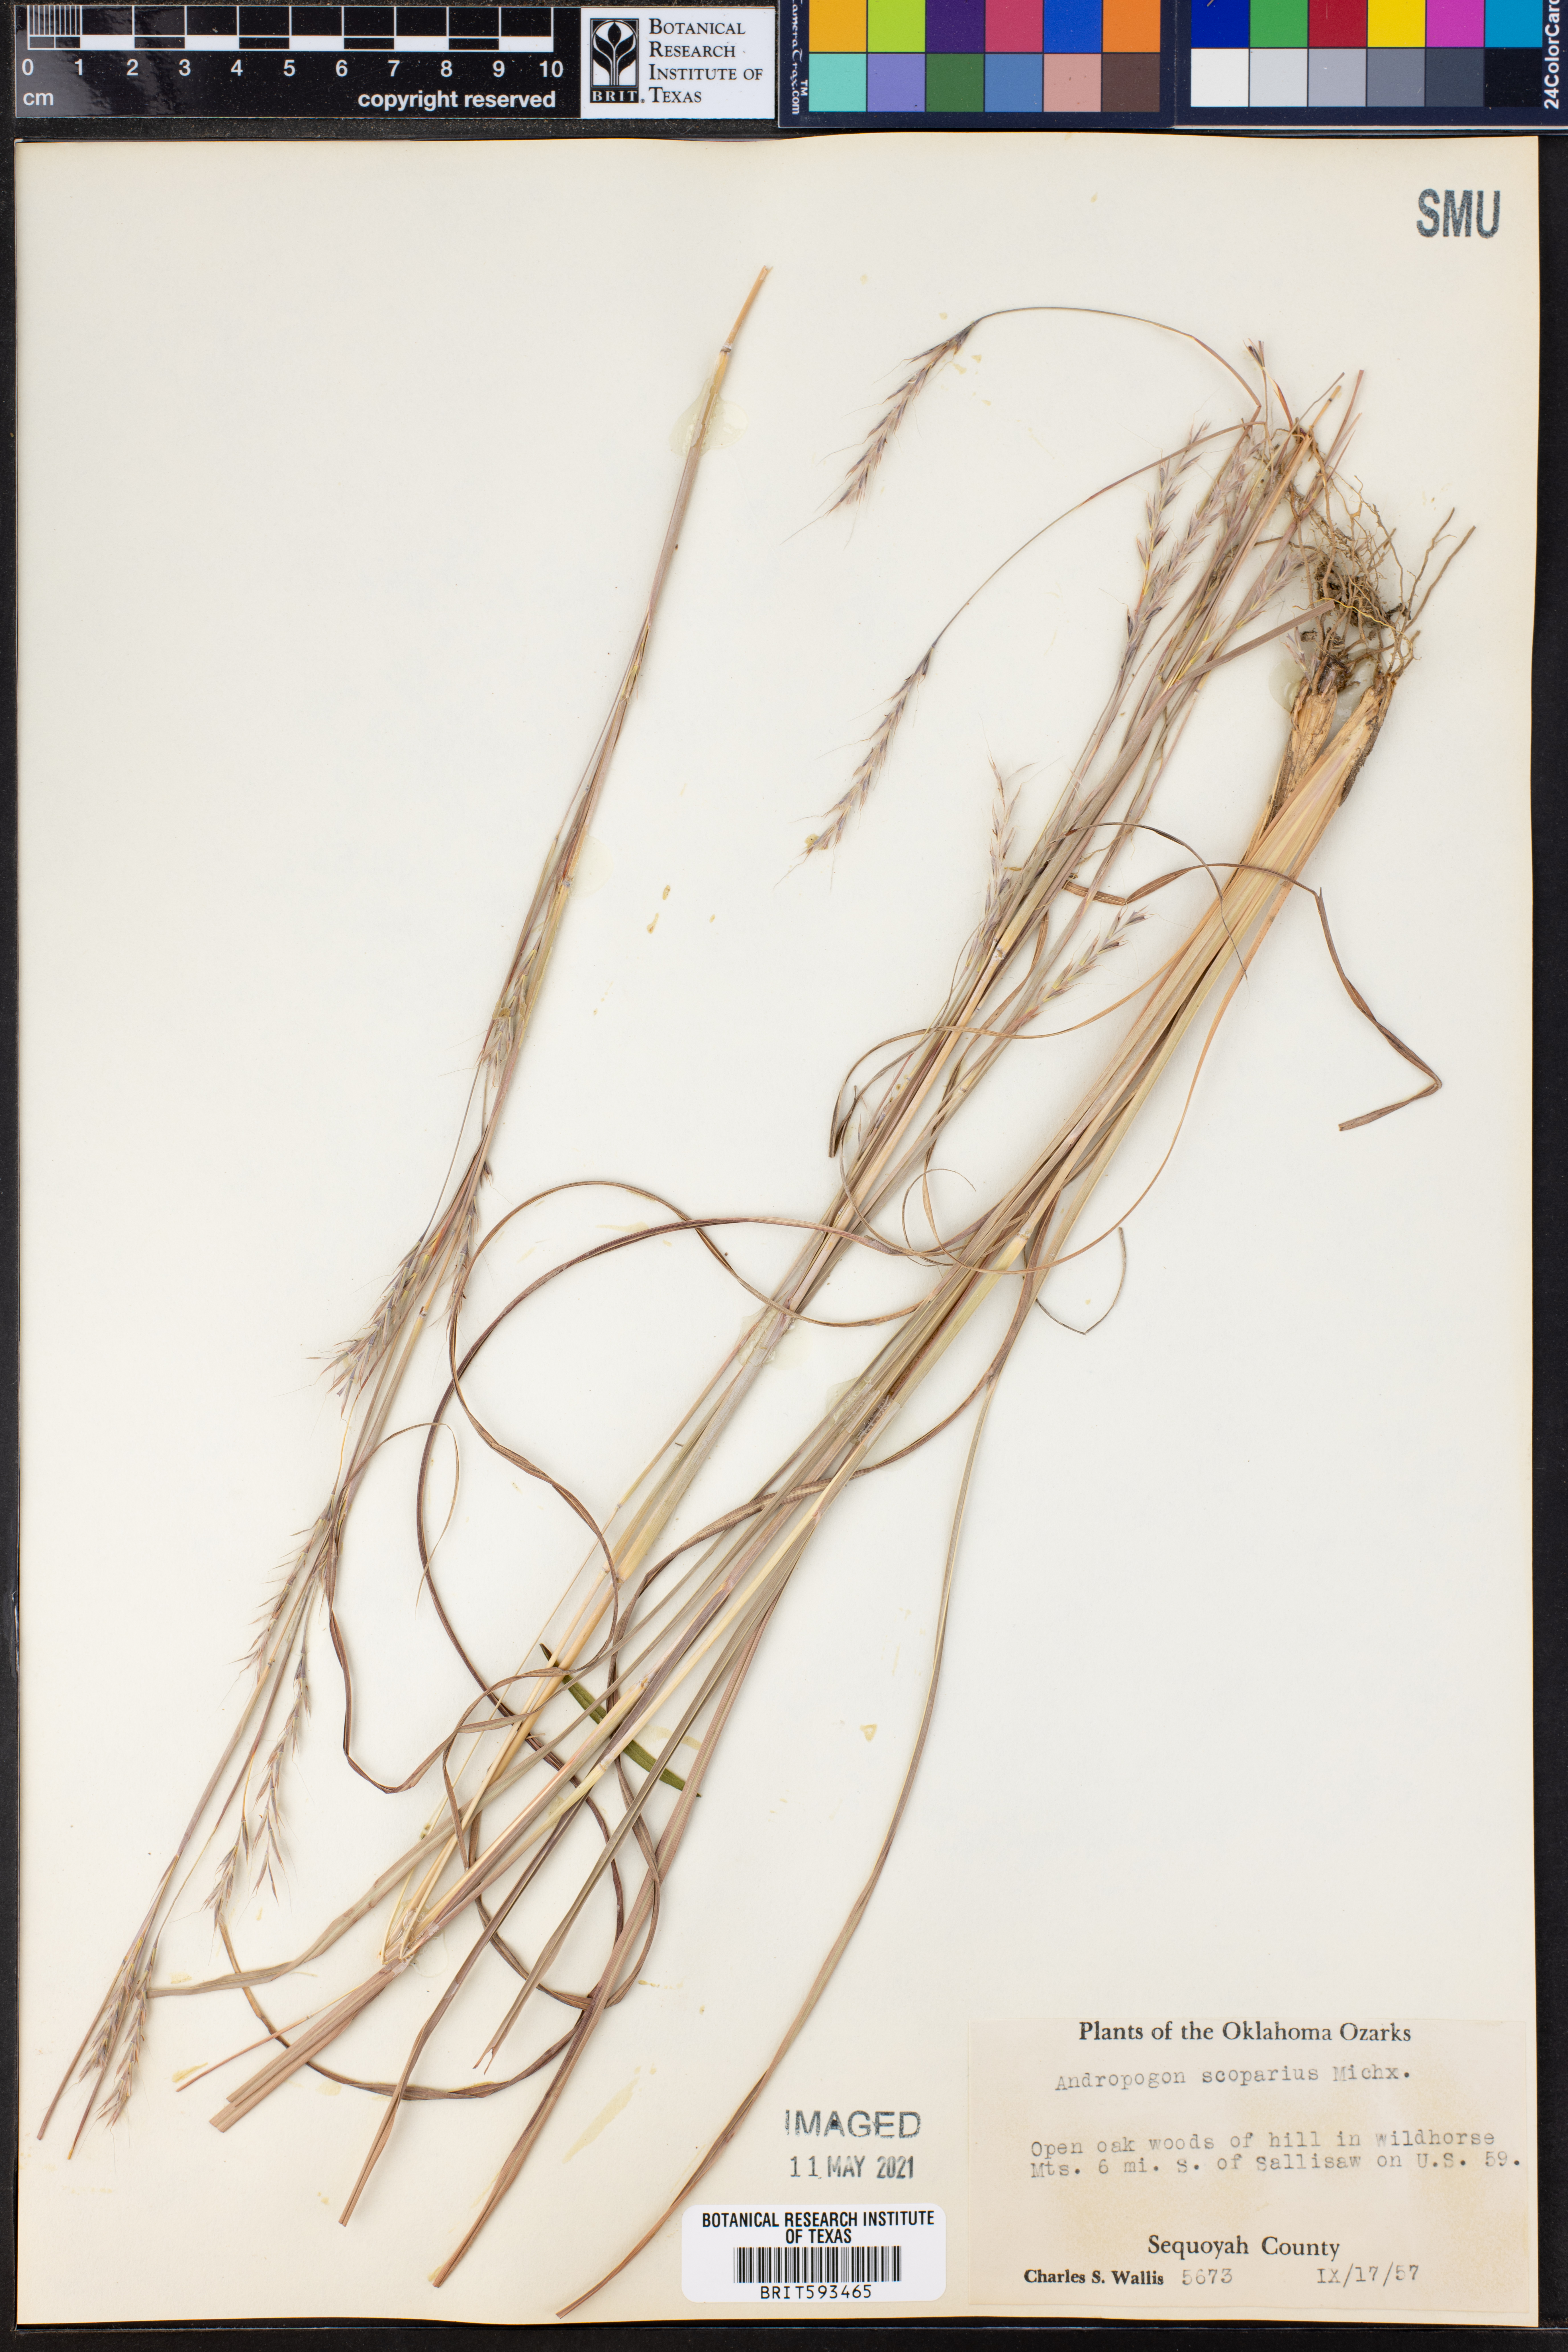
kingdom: Plantae
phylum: Tracheophyta
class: Liliopsida
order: Poales
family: Poaceae
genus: Schizachyrium
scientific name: Schizachyrium scoparium
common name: Little bluestem
